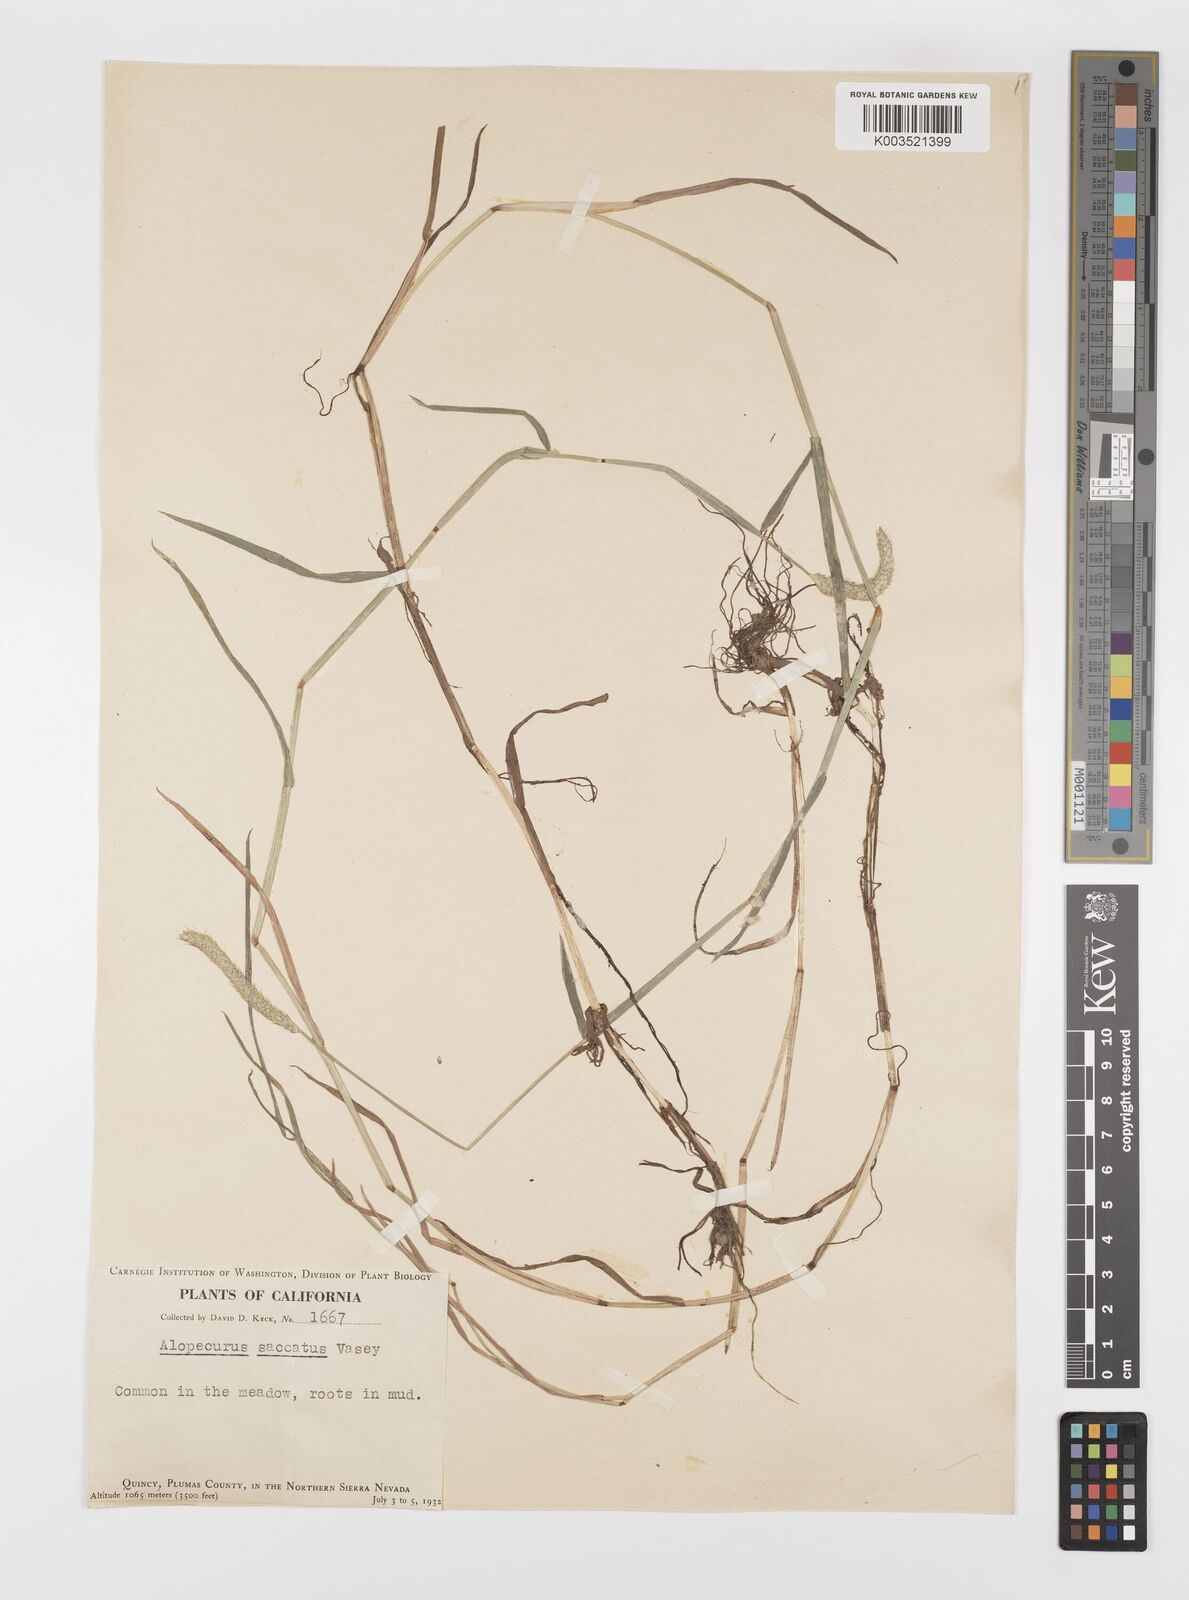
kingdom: Plantae
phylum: Tracheophyta
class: Liliopsida
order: Poales
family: Poaceae
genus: Alopecurus
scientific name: Alopecurus geniculatus
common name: Water foxtail
